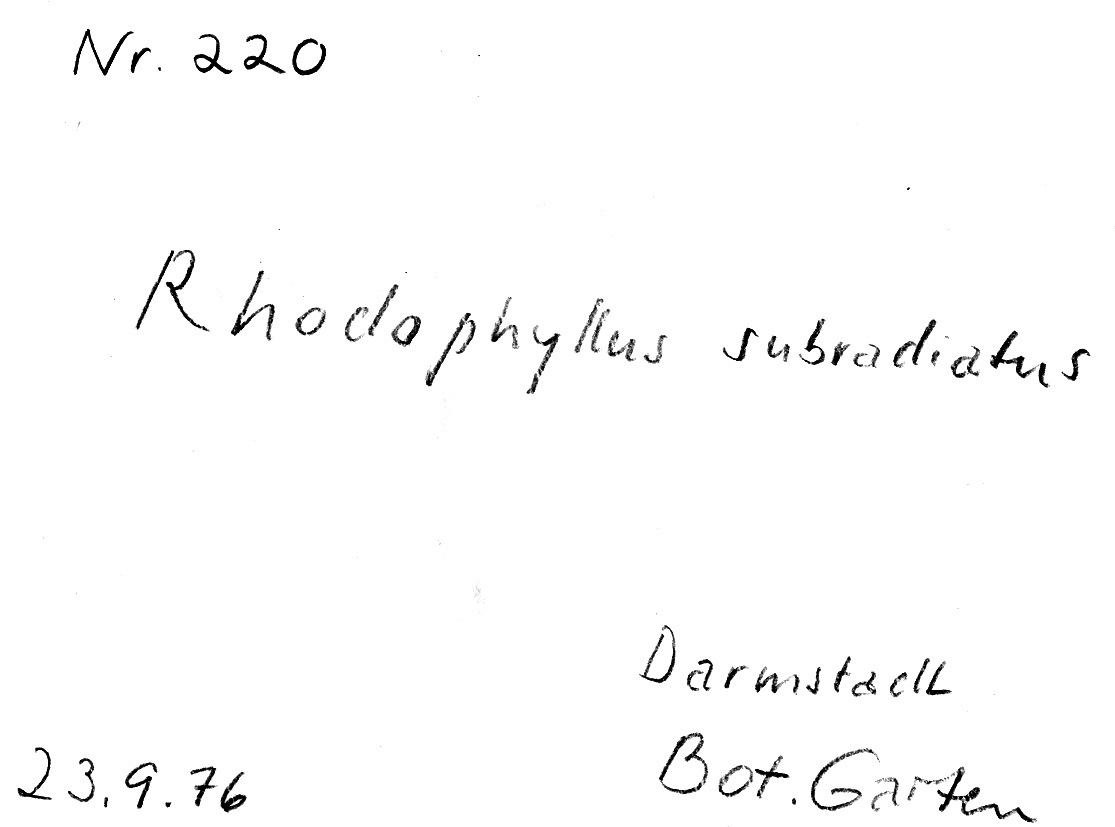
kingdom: Fungi
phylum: Basidiomycota
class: Agaricomycetes
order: Agaricales
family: Entolomataceae
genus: Entoloma
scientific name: Entoloma subradiatum
